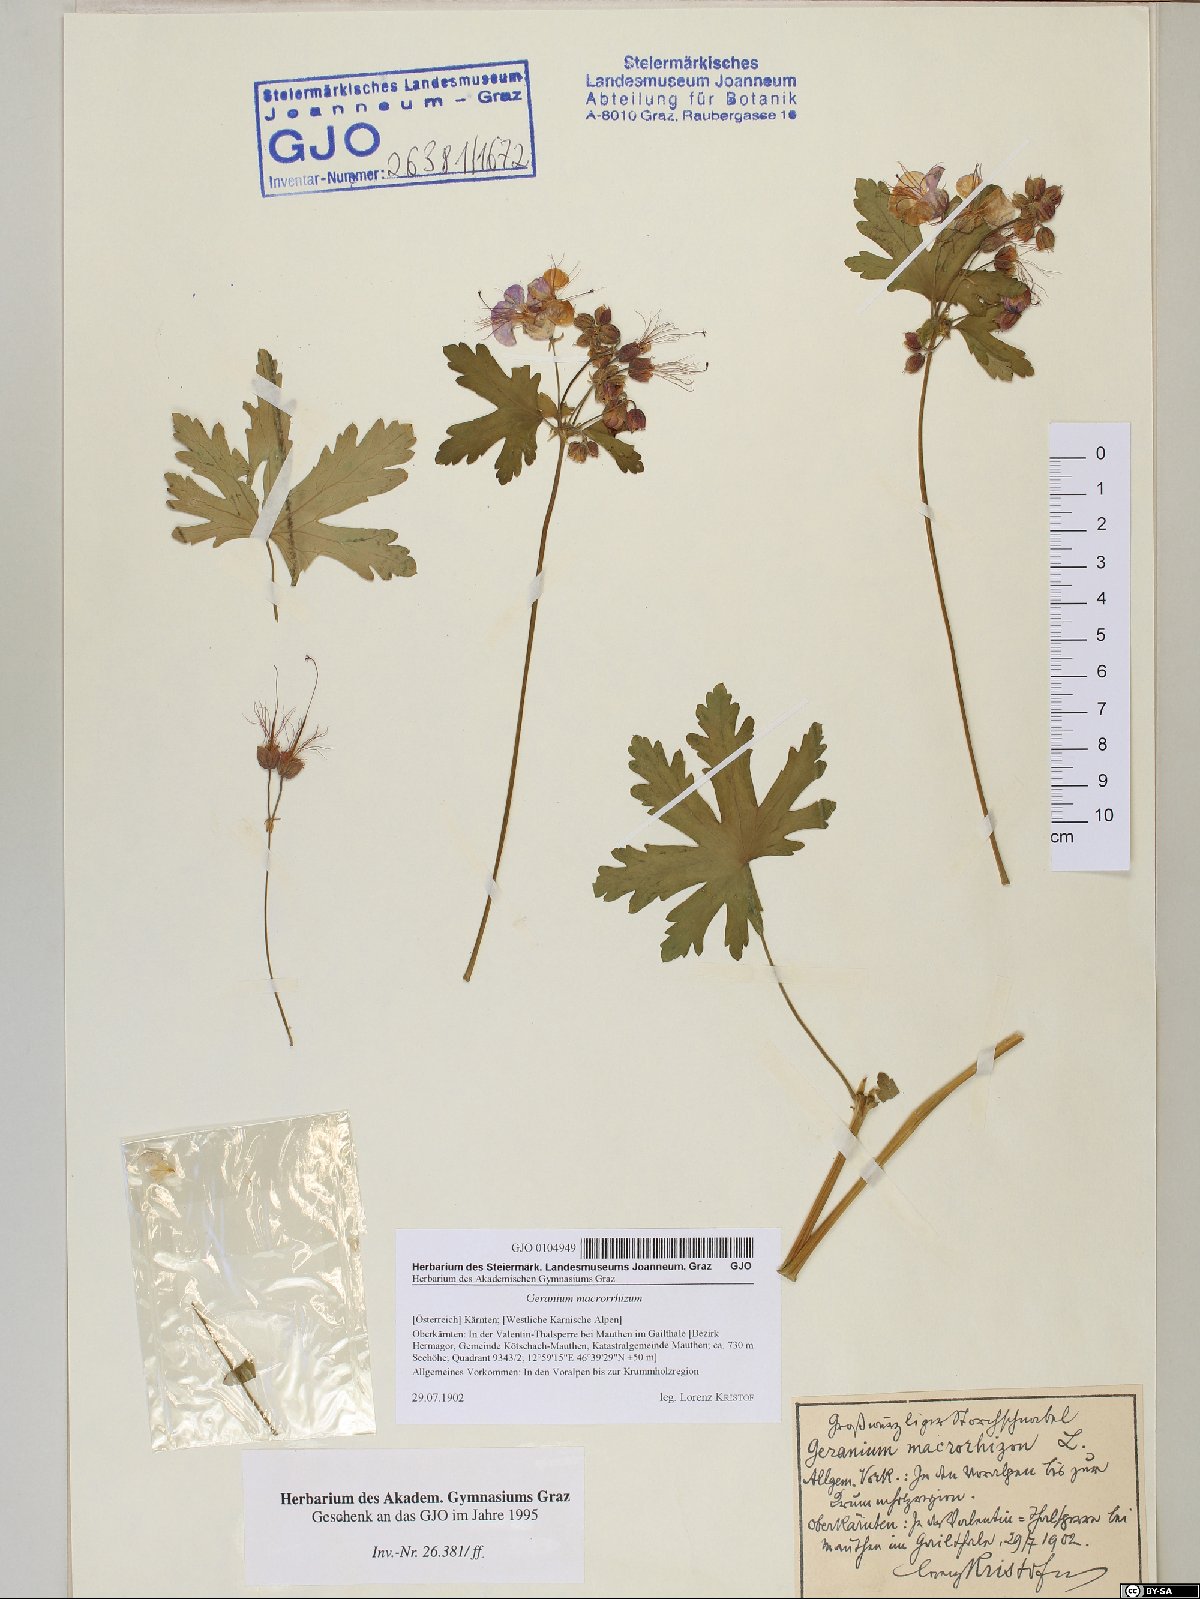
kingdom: Plantae
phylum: Tracheophyta
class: Magnoliopsida
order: Geraniales
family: Geraniaceae
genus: Geranium
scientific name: Geranium macrorrhizum
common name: Rock crane's-bill
